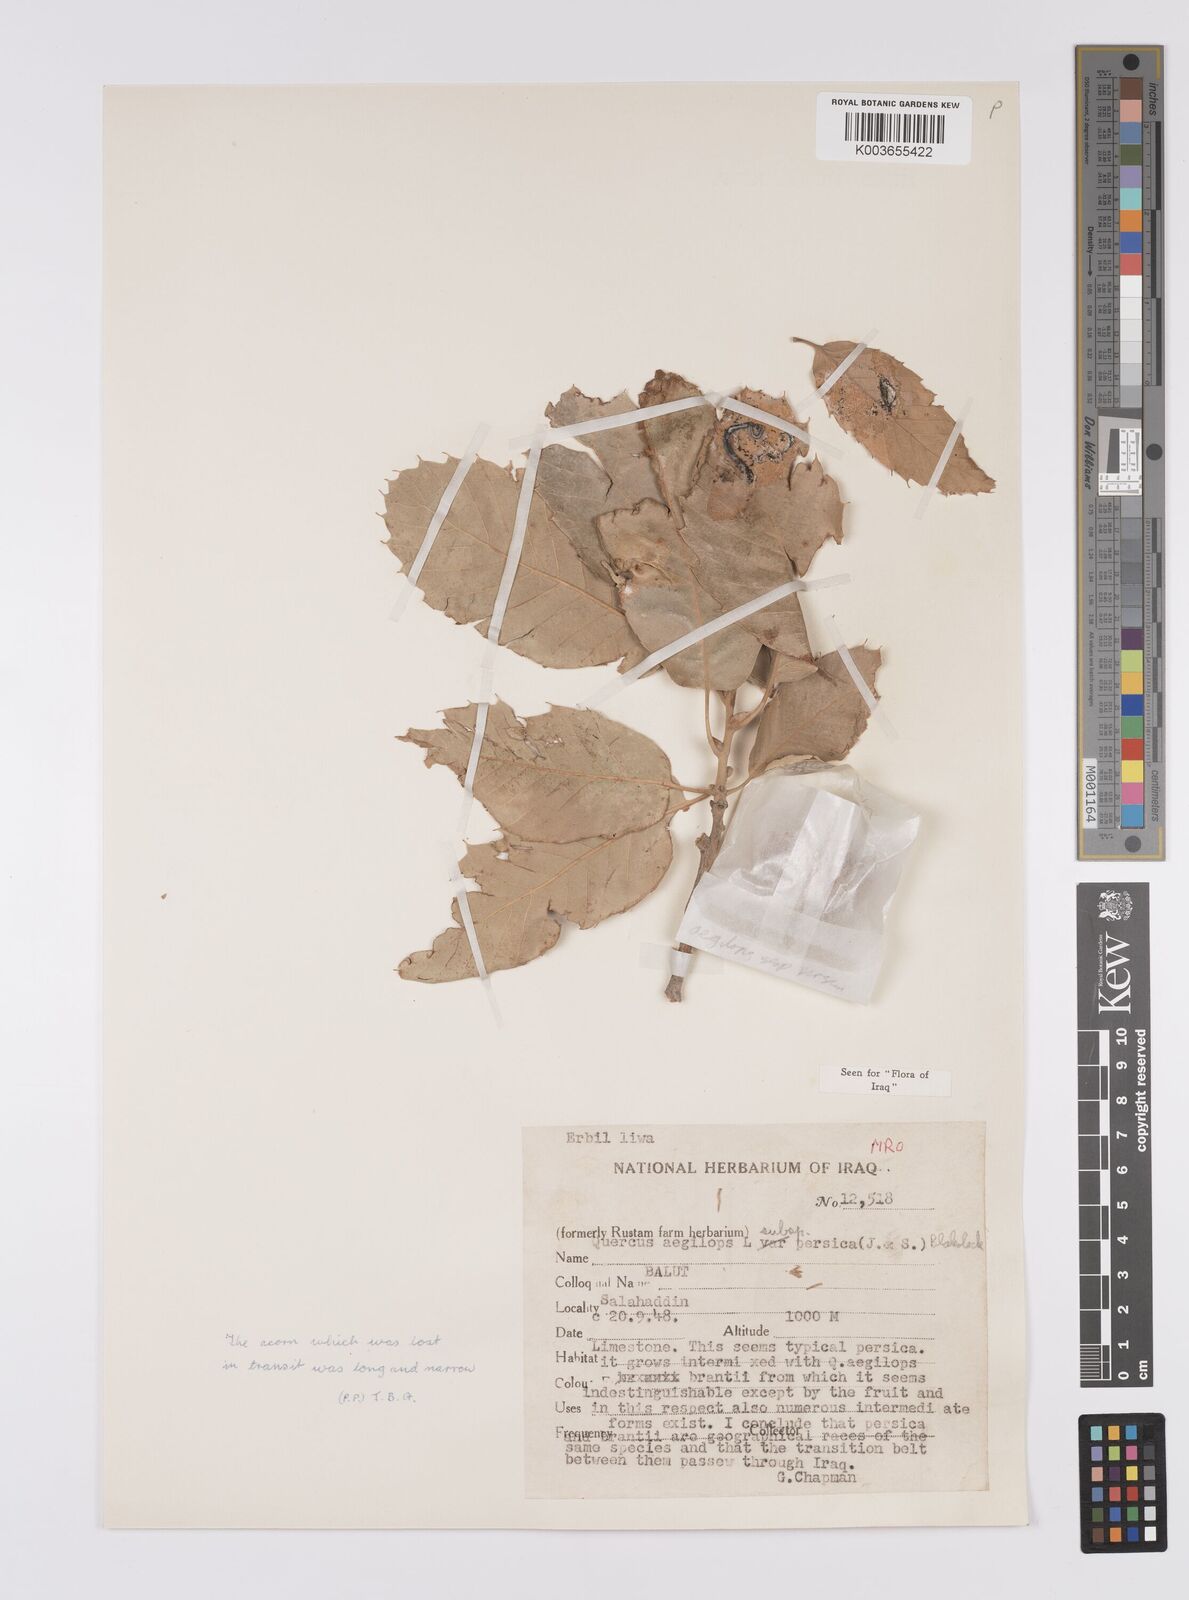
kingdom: Plantae
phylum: Tracheophyta
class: Magnoliopsida
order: Fagales
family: Fagaceae
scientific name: Fagaceae
